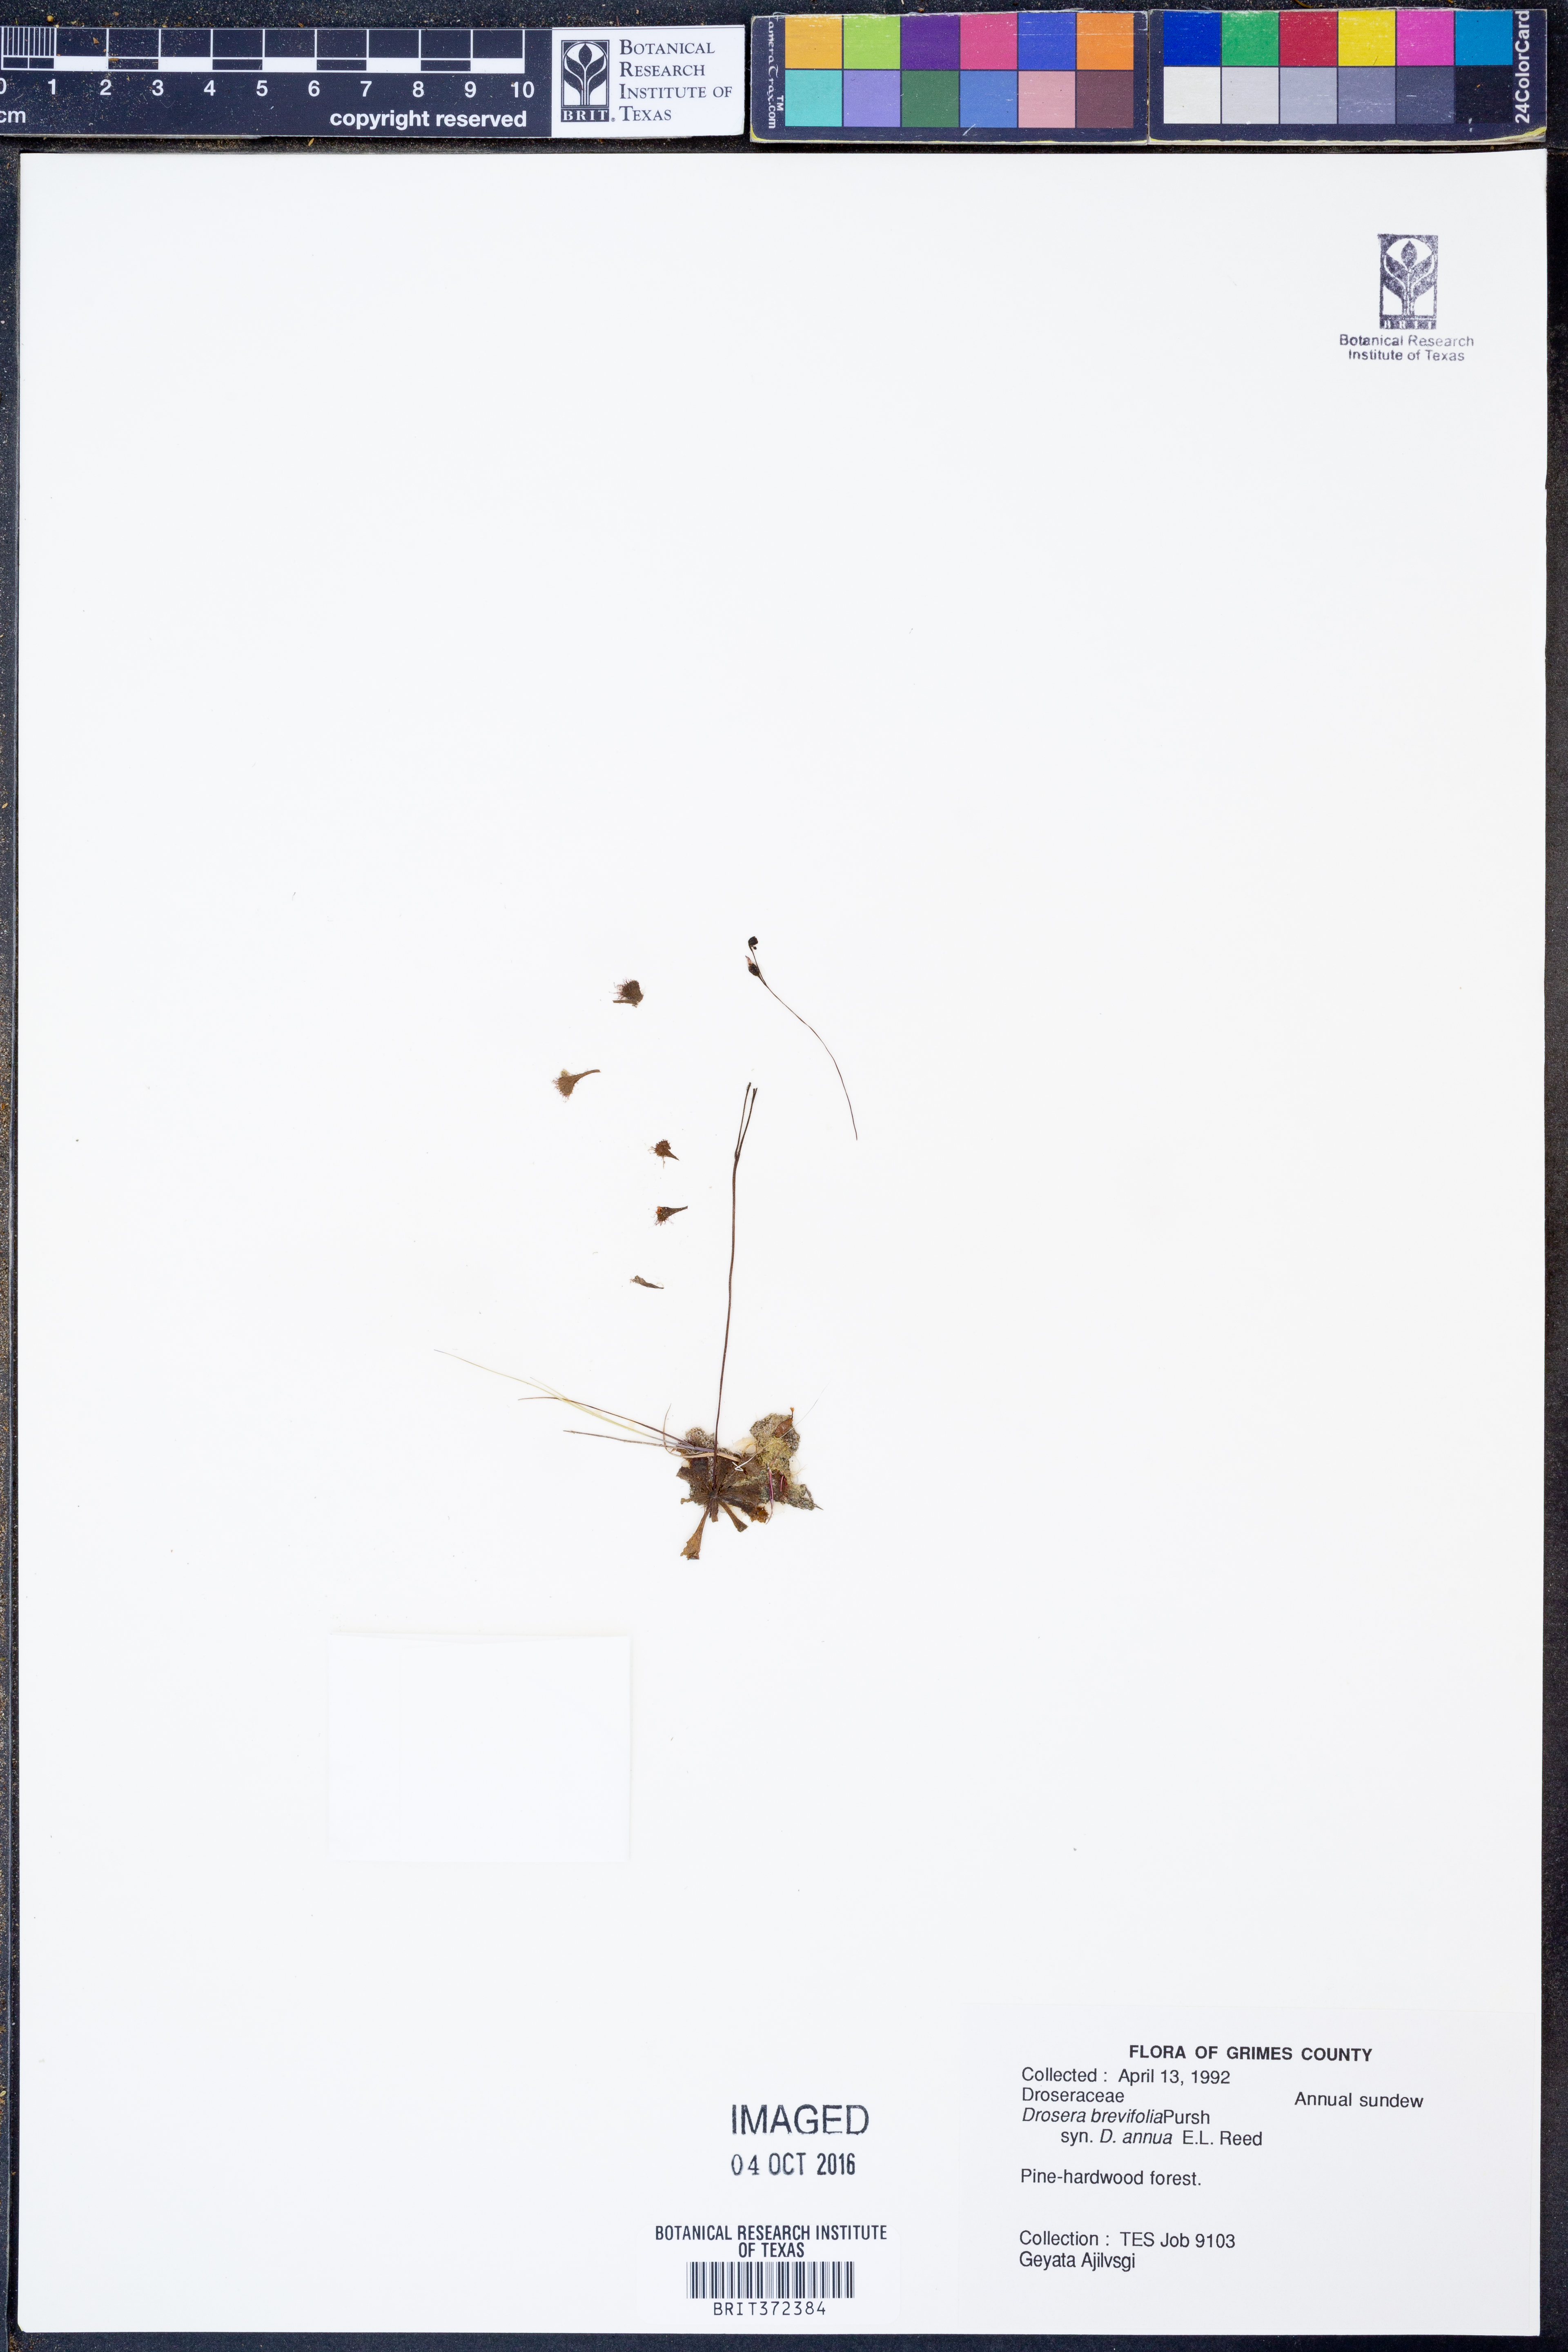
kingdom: Plantae
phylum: Tracheophyta
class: Magnoliopsida
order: Caryophyllales
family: Droseraceae
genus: Drosera
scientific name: Drosera brevifolia
